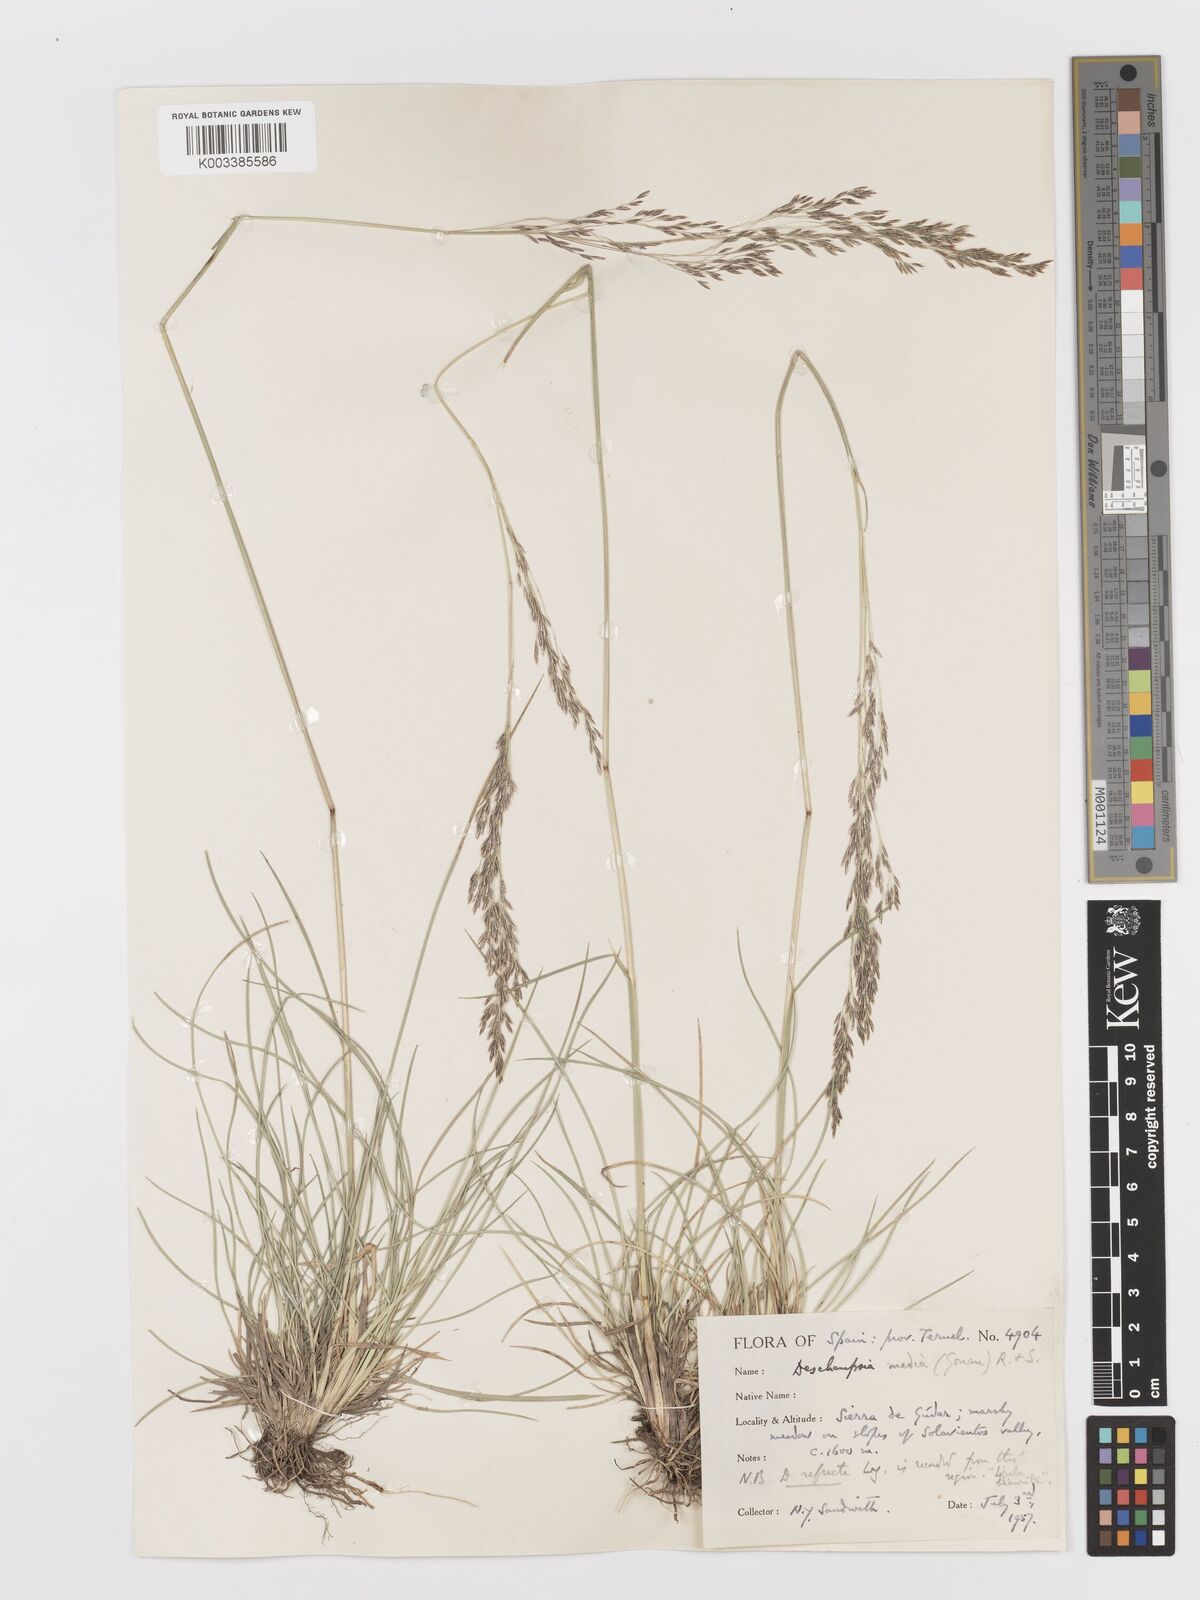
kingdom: Plantae
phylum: Tracheophyta
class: Liliopsida
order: Poales
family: Poaceae
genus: Deschampsia
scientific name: Deschampsia media
